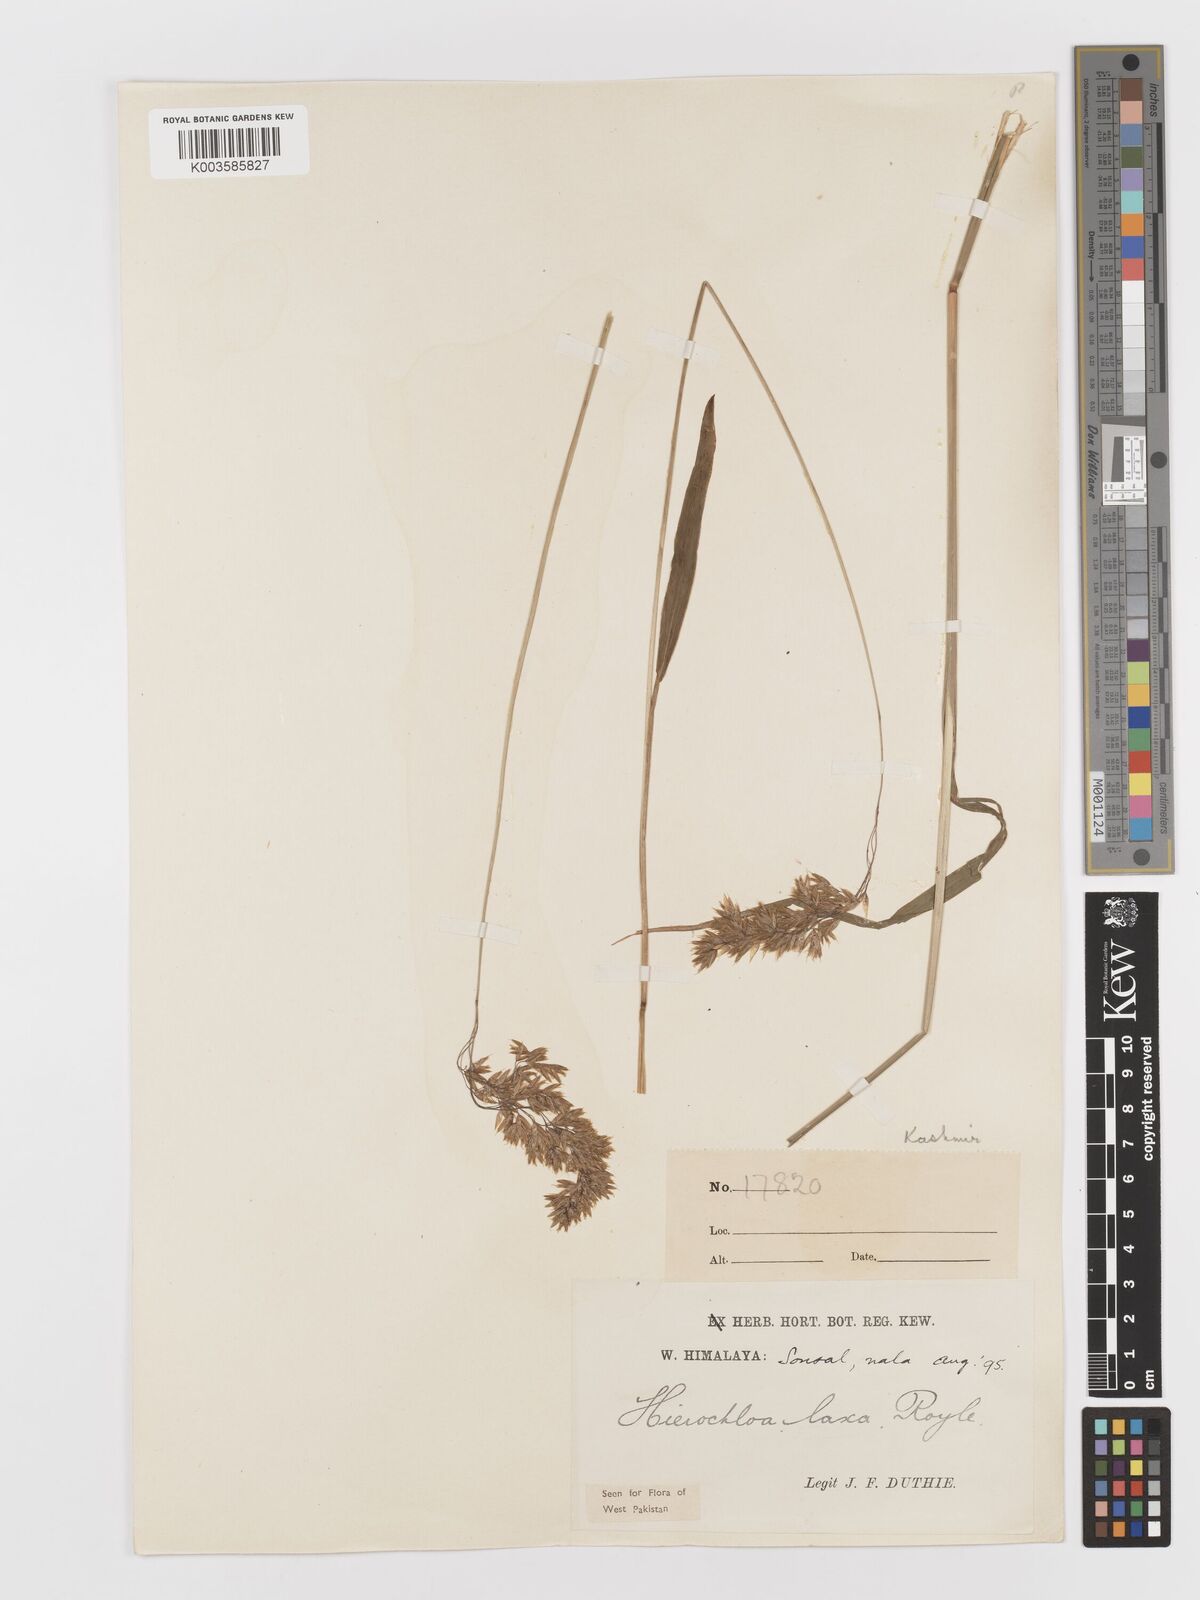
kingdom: Plantae
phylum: Tracheophyta
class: Liliopsida
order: Poales
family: Poaceae
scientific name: Poaceae
